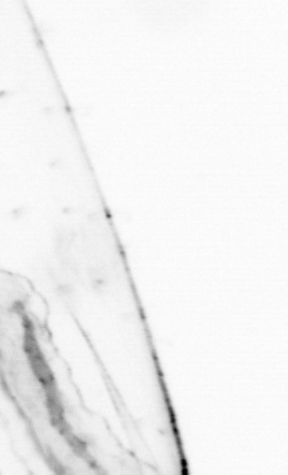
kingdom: Animalia
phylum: Chaetognatha
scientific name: Chaetognatha
